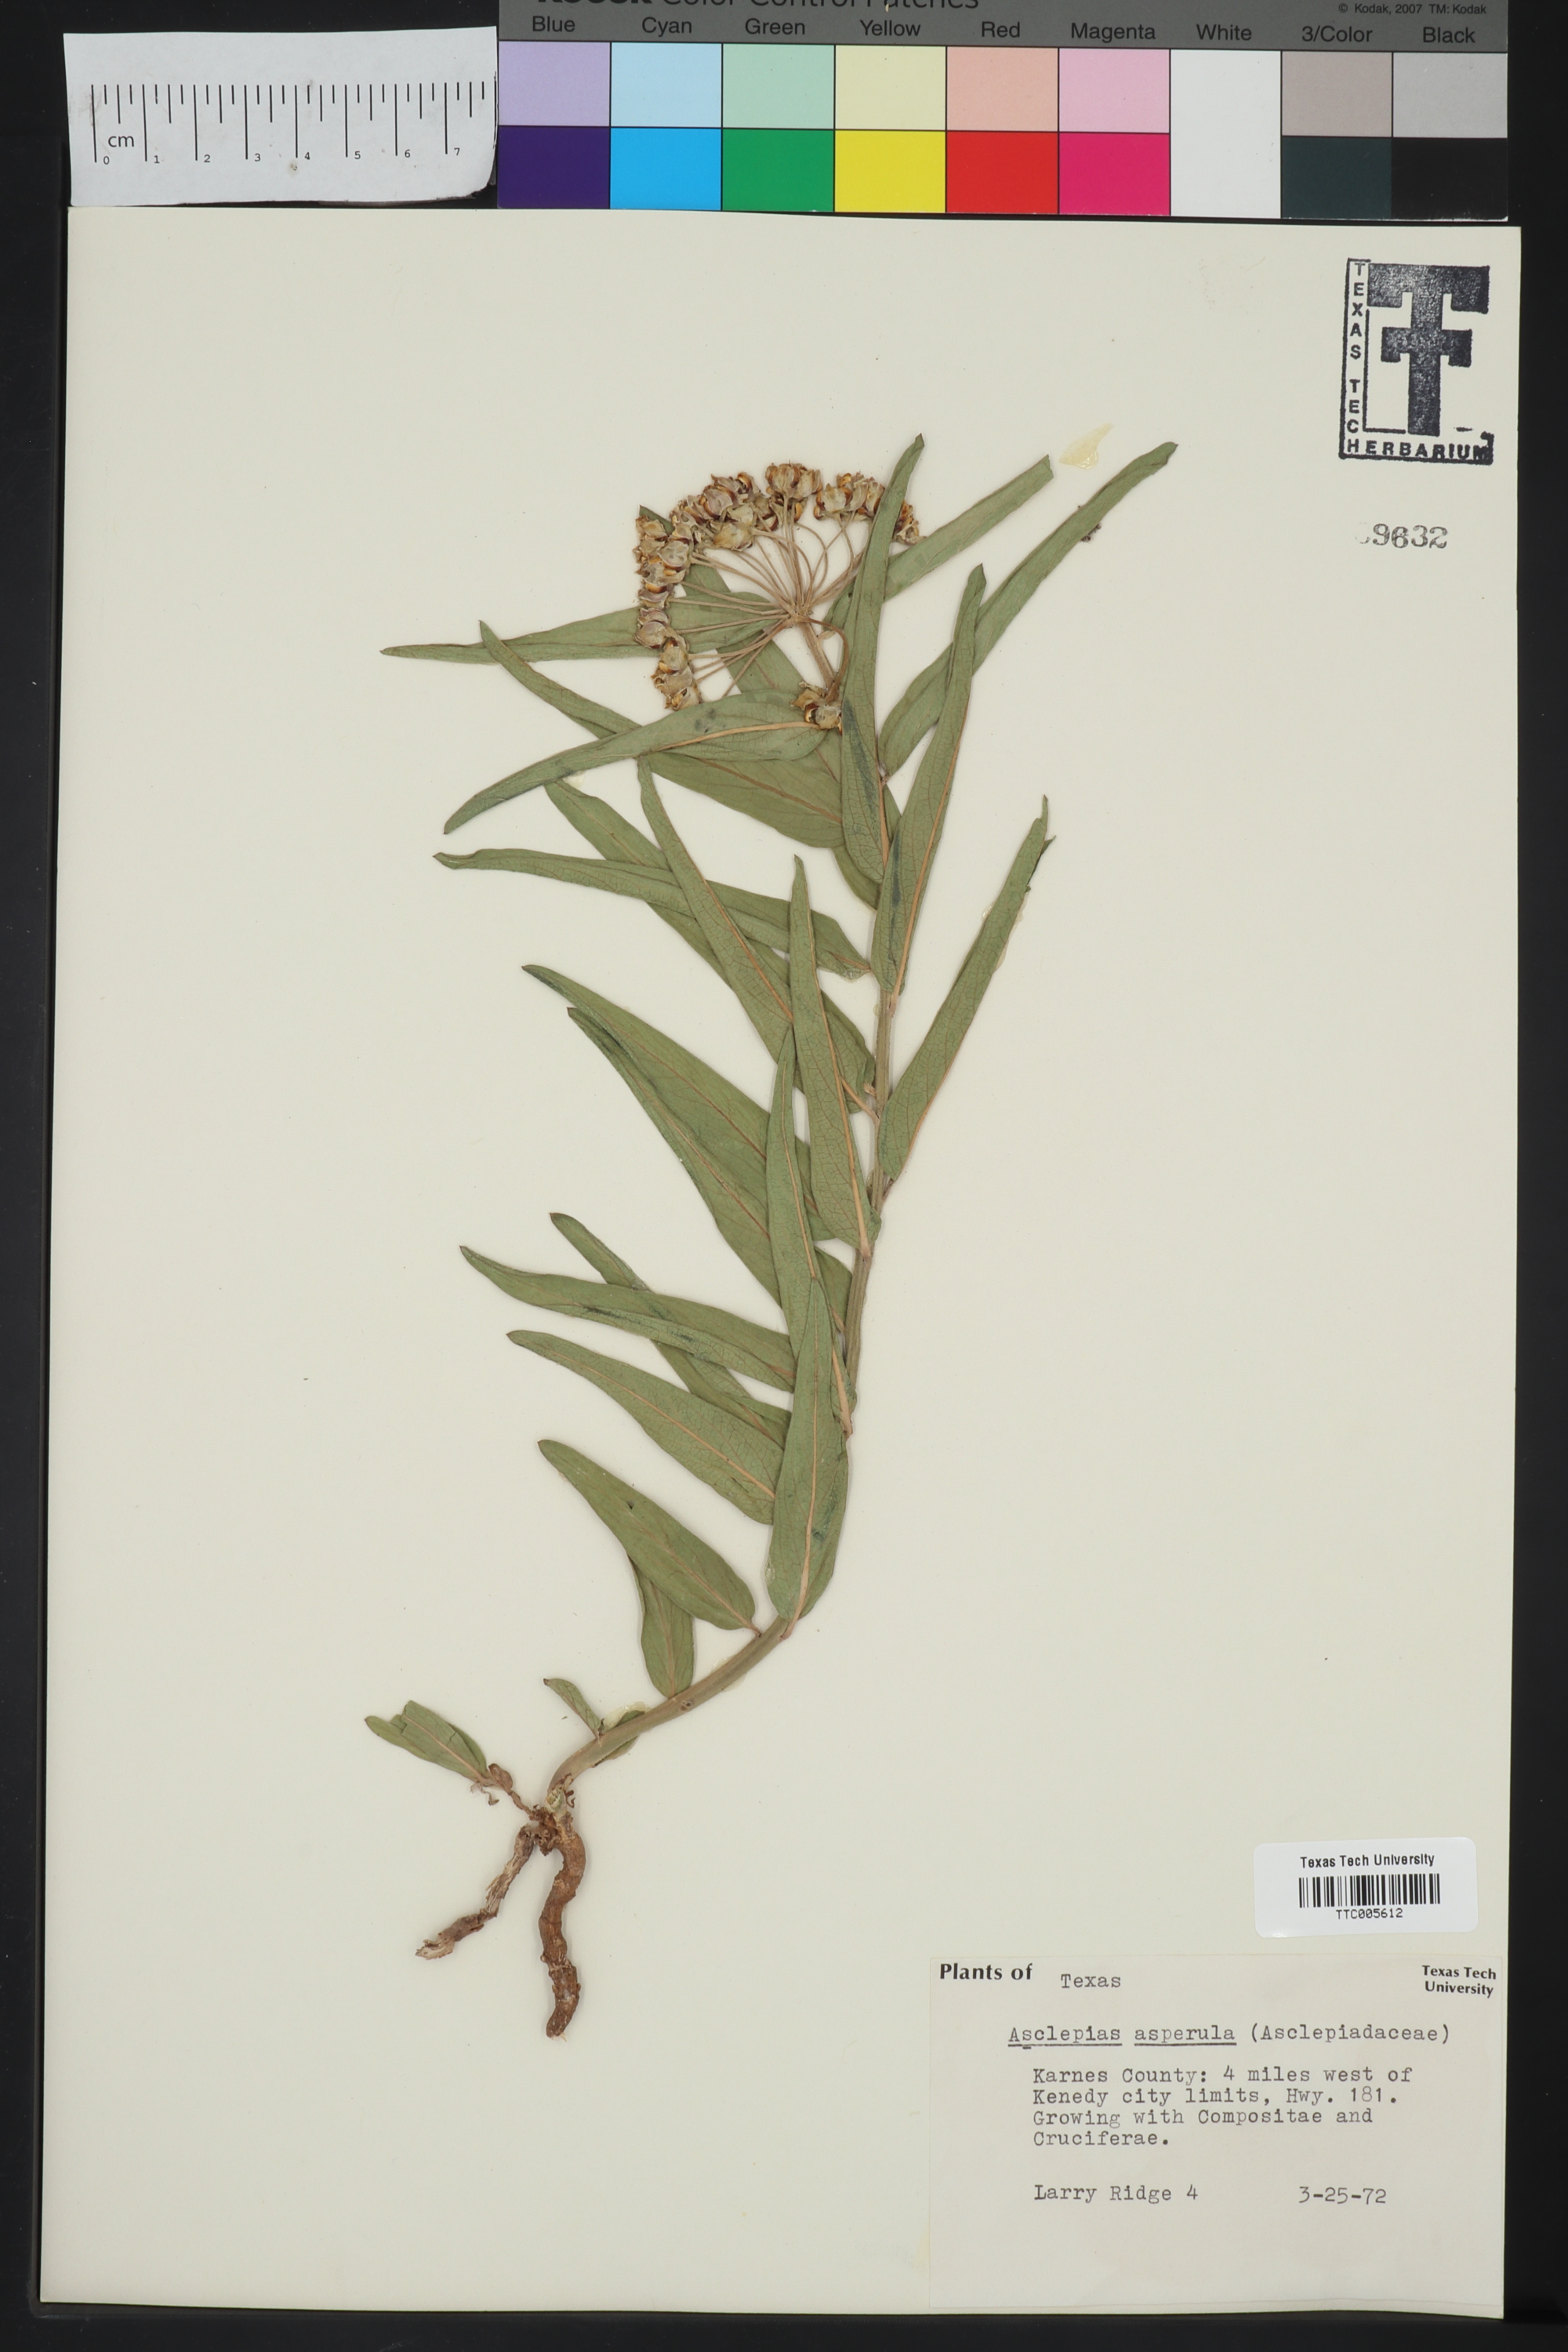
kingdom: Plantae
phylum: Tracheophyta
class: Magnoliopsida
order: Gentianales
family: Apocynaceae
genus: Asclepias
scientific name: Asclepias asperula
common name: Antelope horns
